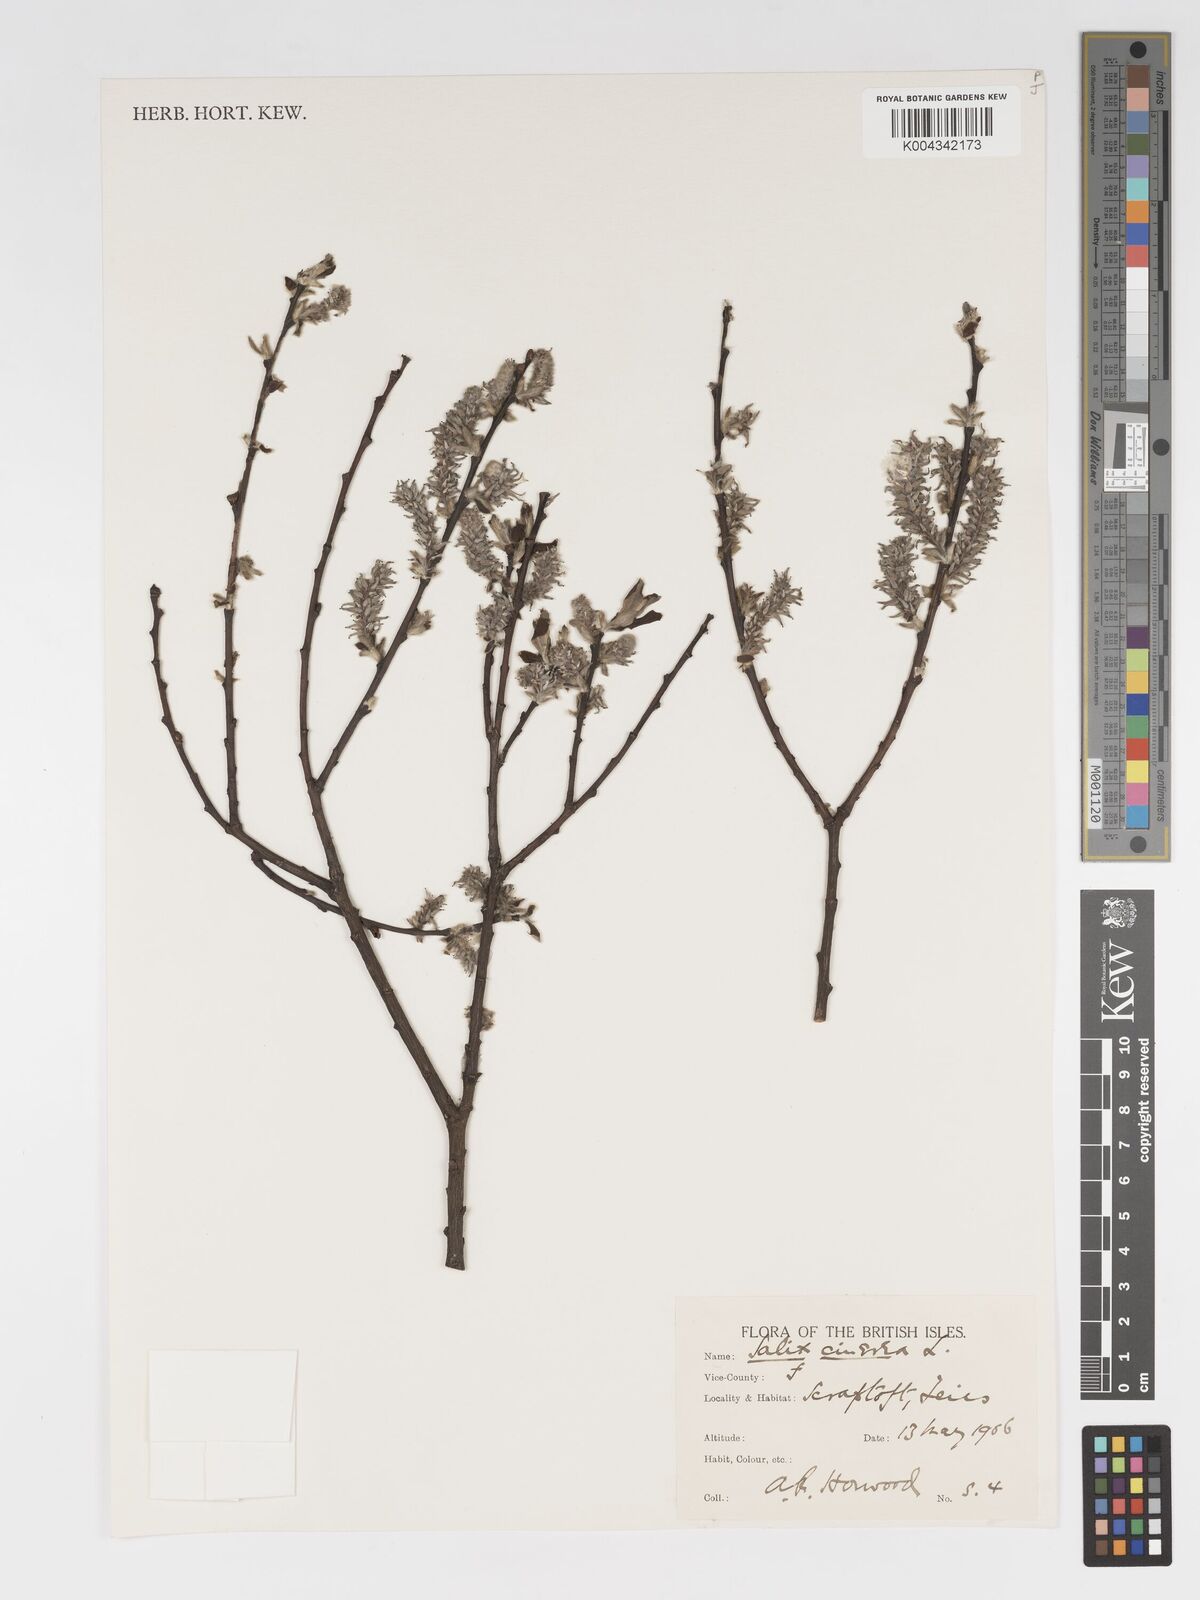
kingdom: Plantae
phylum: Tracheophyta
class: Magnoliopsida
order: Malpighiales
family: Salicaceae
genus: Salix
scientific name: Salix
